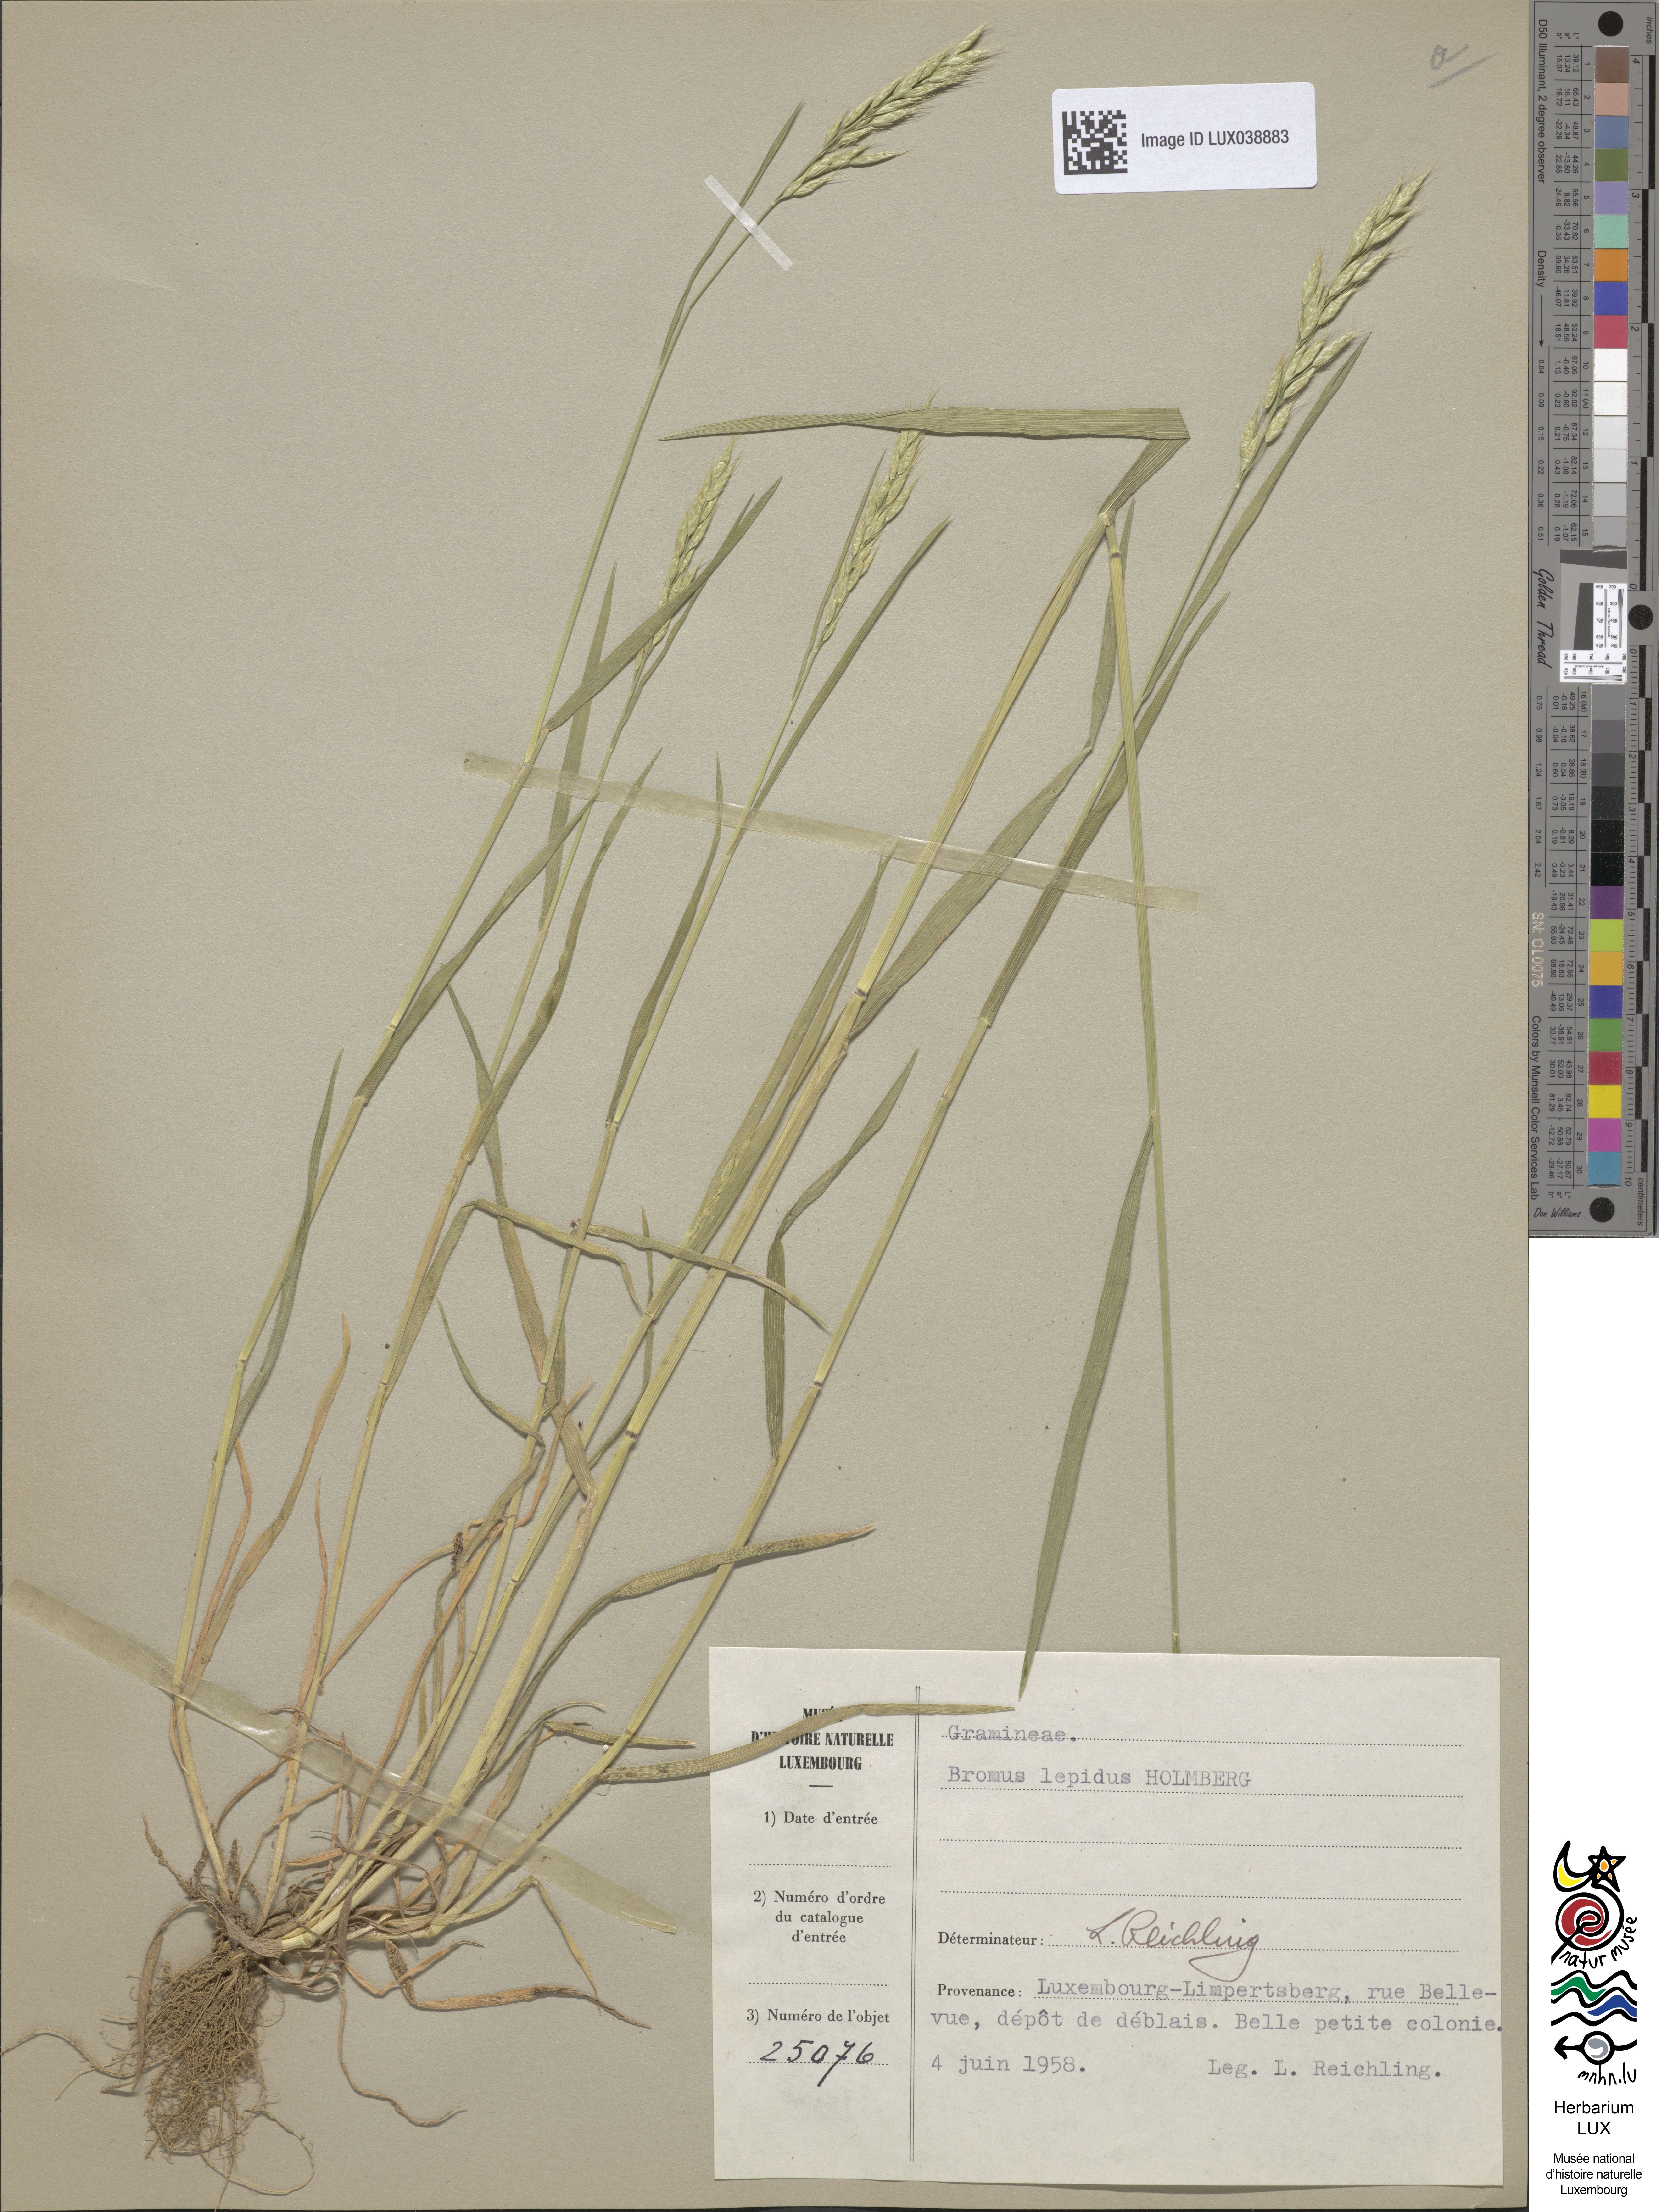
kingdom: Plantae
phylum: Tracheophyta
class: Liliopsida
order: Poales
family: Poaceae
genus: Bromus
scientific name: Bromus lepidus
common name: Slender soft-brome
